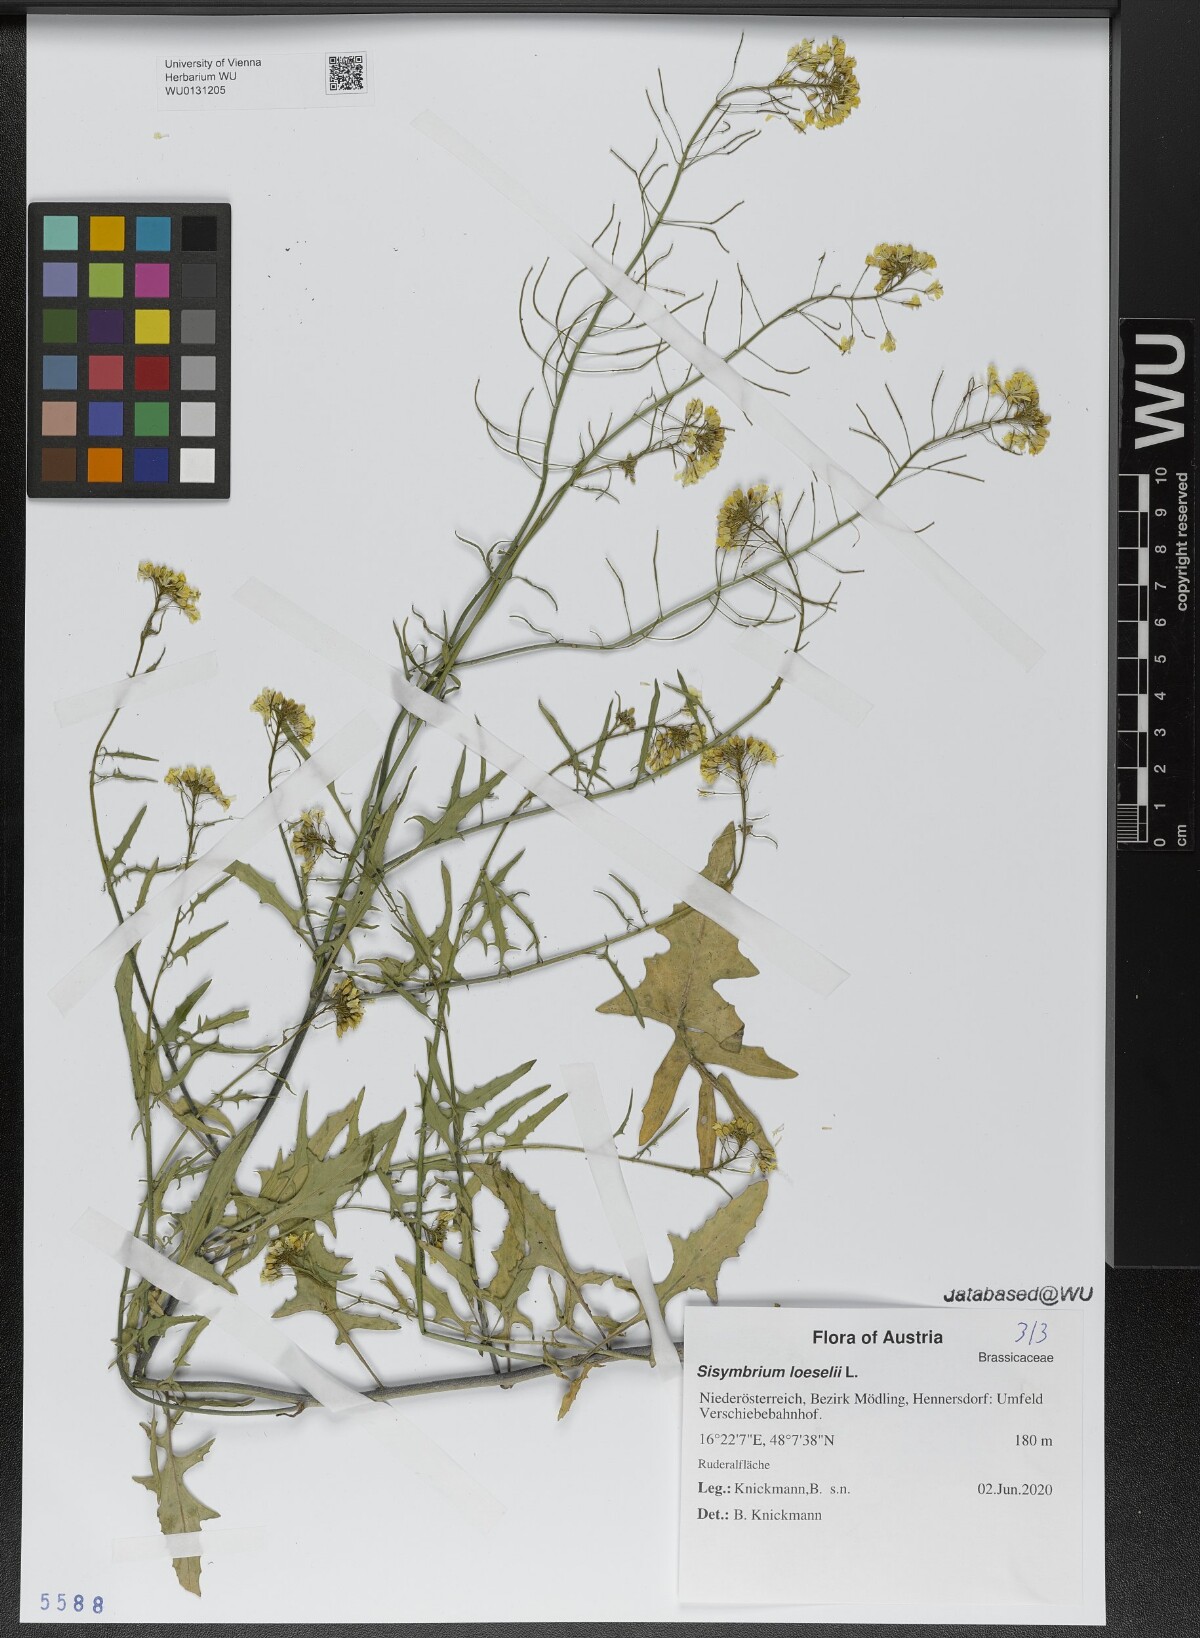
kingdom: Plantae
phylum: Tracheophyta
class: Magnoliopsida
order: Brassicales
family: Brassicaceae
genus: Sisymbrium
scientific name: Sisymbrium loeselii
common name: False london-rocket
